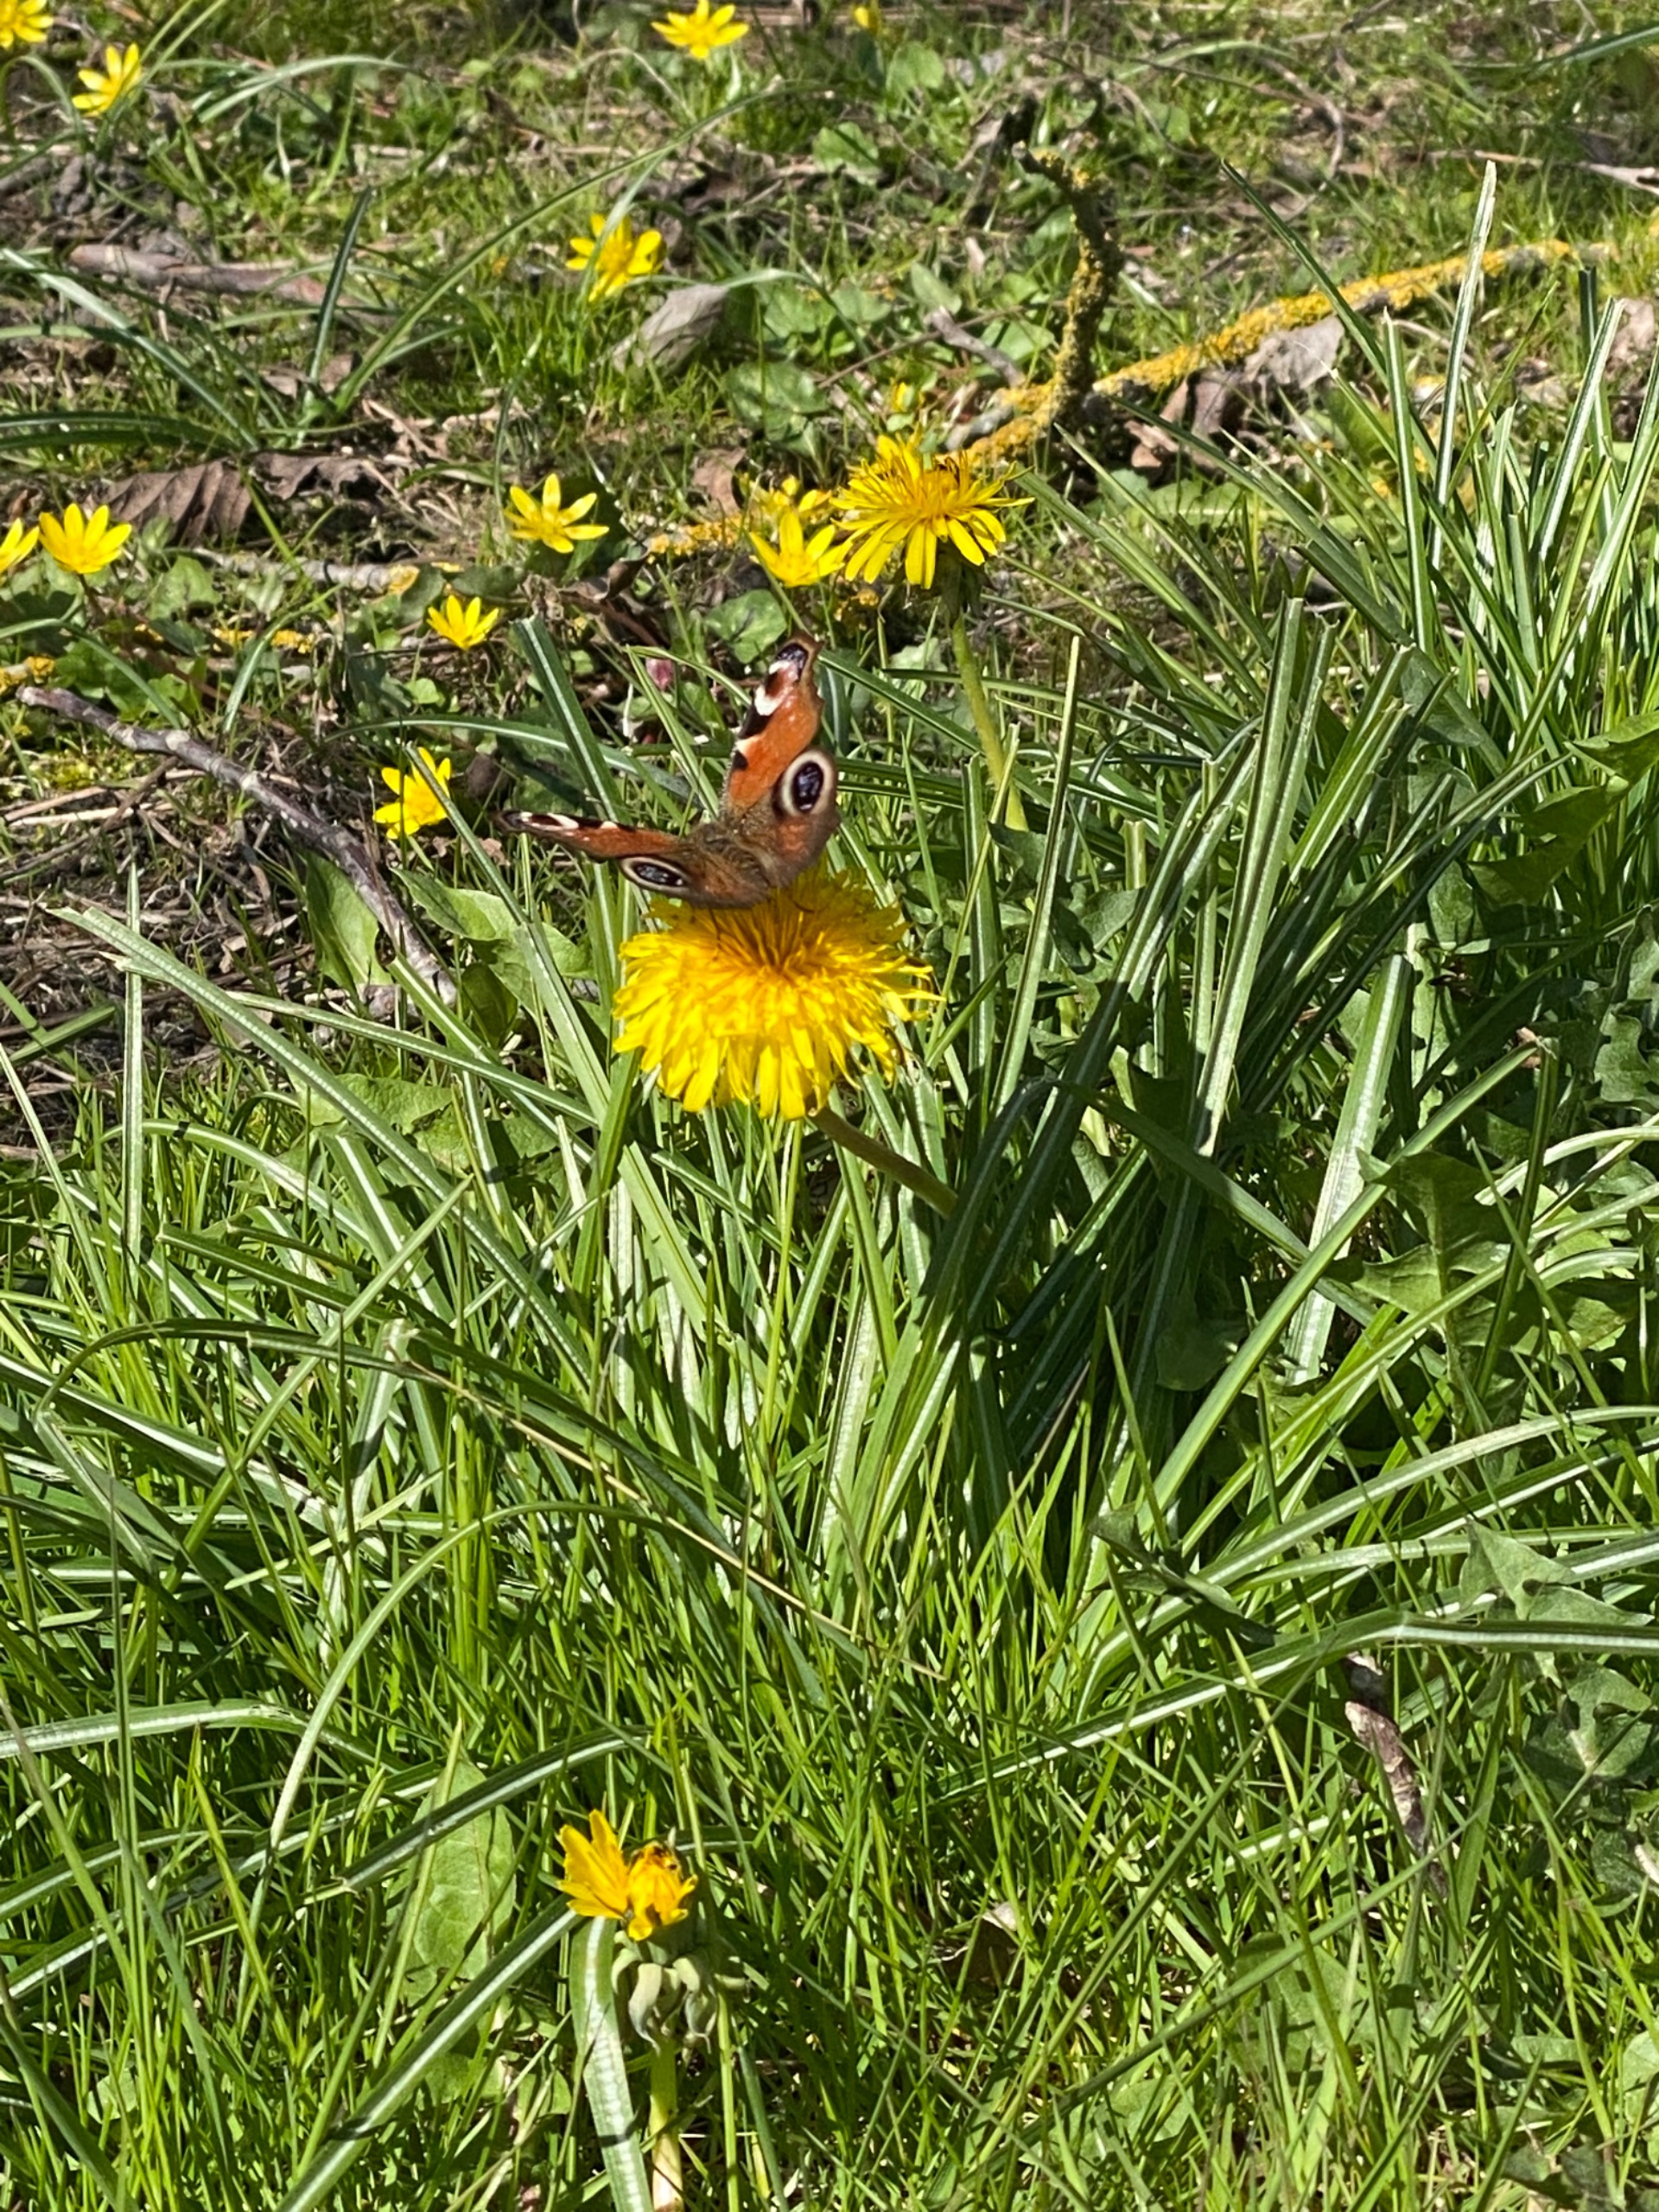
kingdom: Animalia
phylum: Arthropoda
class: Insecta
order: Lepidoptera
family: Nymphalidae
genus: Aglais
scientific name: Aglais io
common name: Dagpåfugleøje
